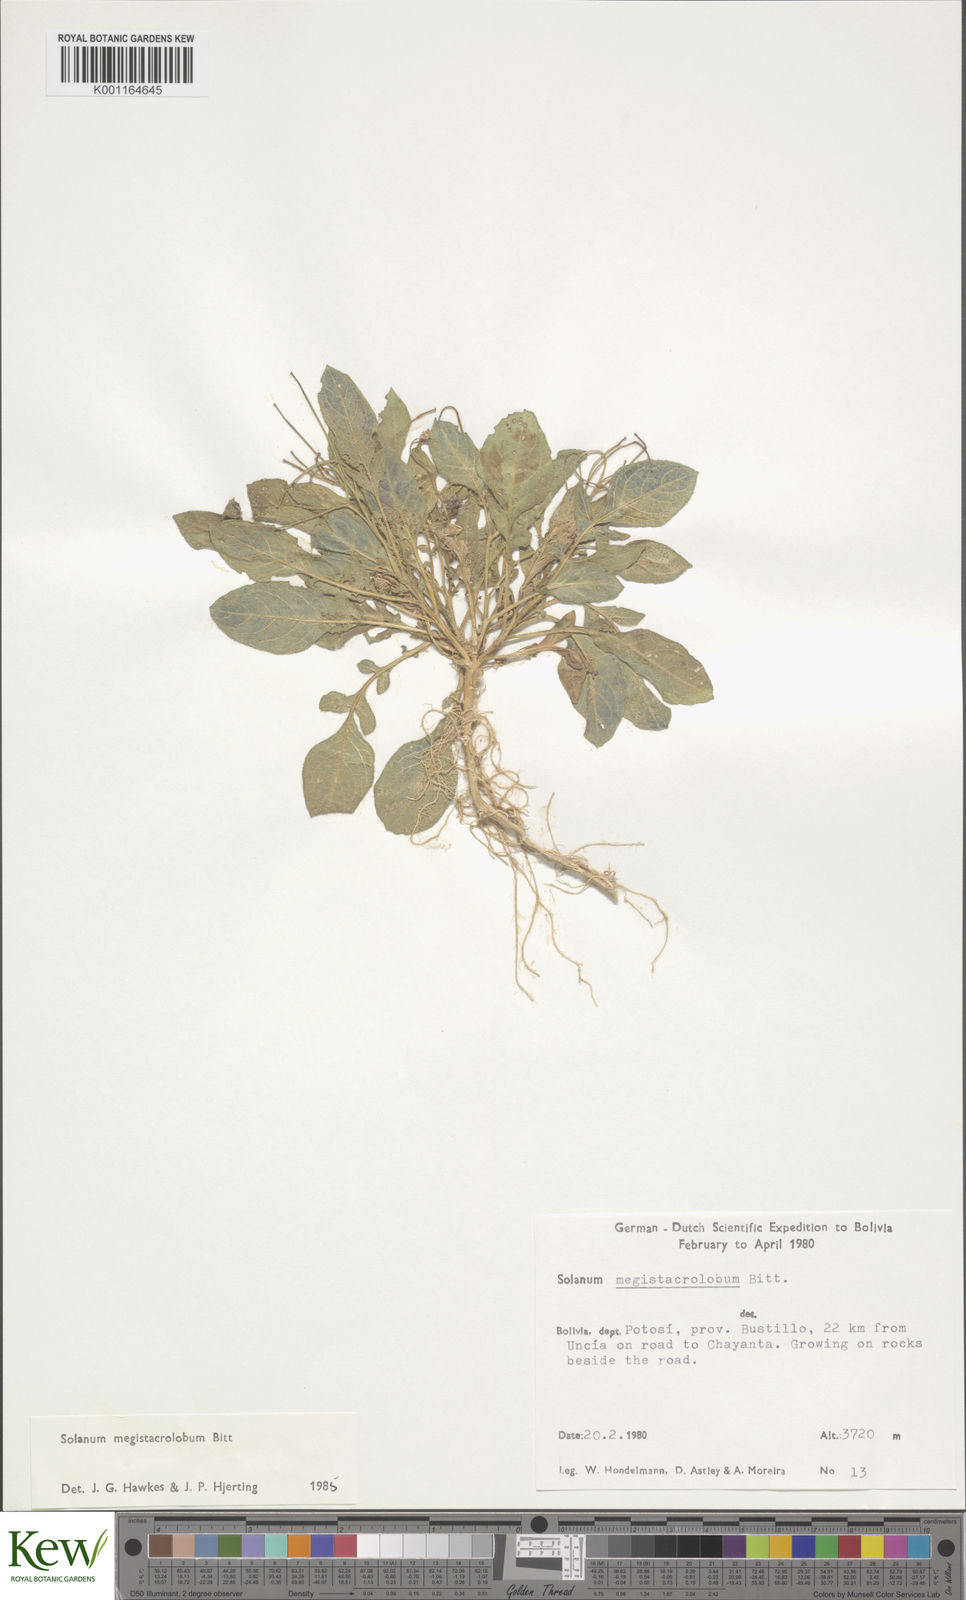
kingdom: Plantae
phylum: Tracheophyta
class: Magnoliopsida
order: Solanales
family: Solanaceae
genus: Solanum
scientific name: Solanum boliviense
